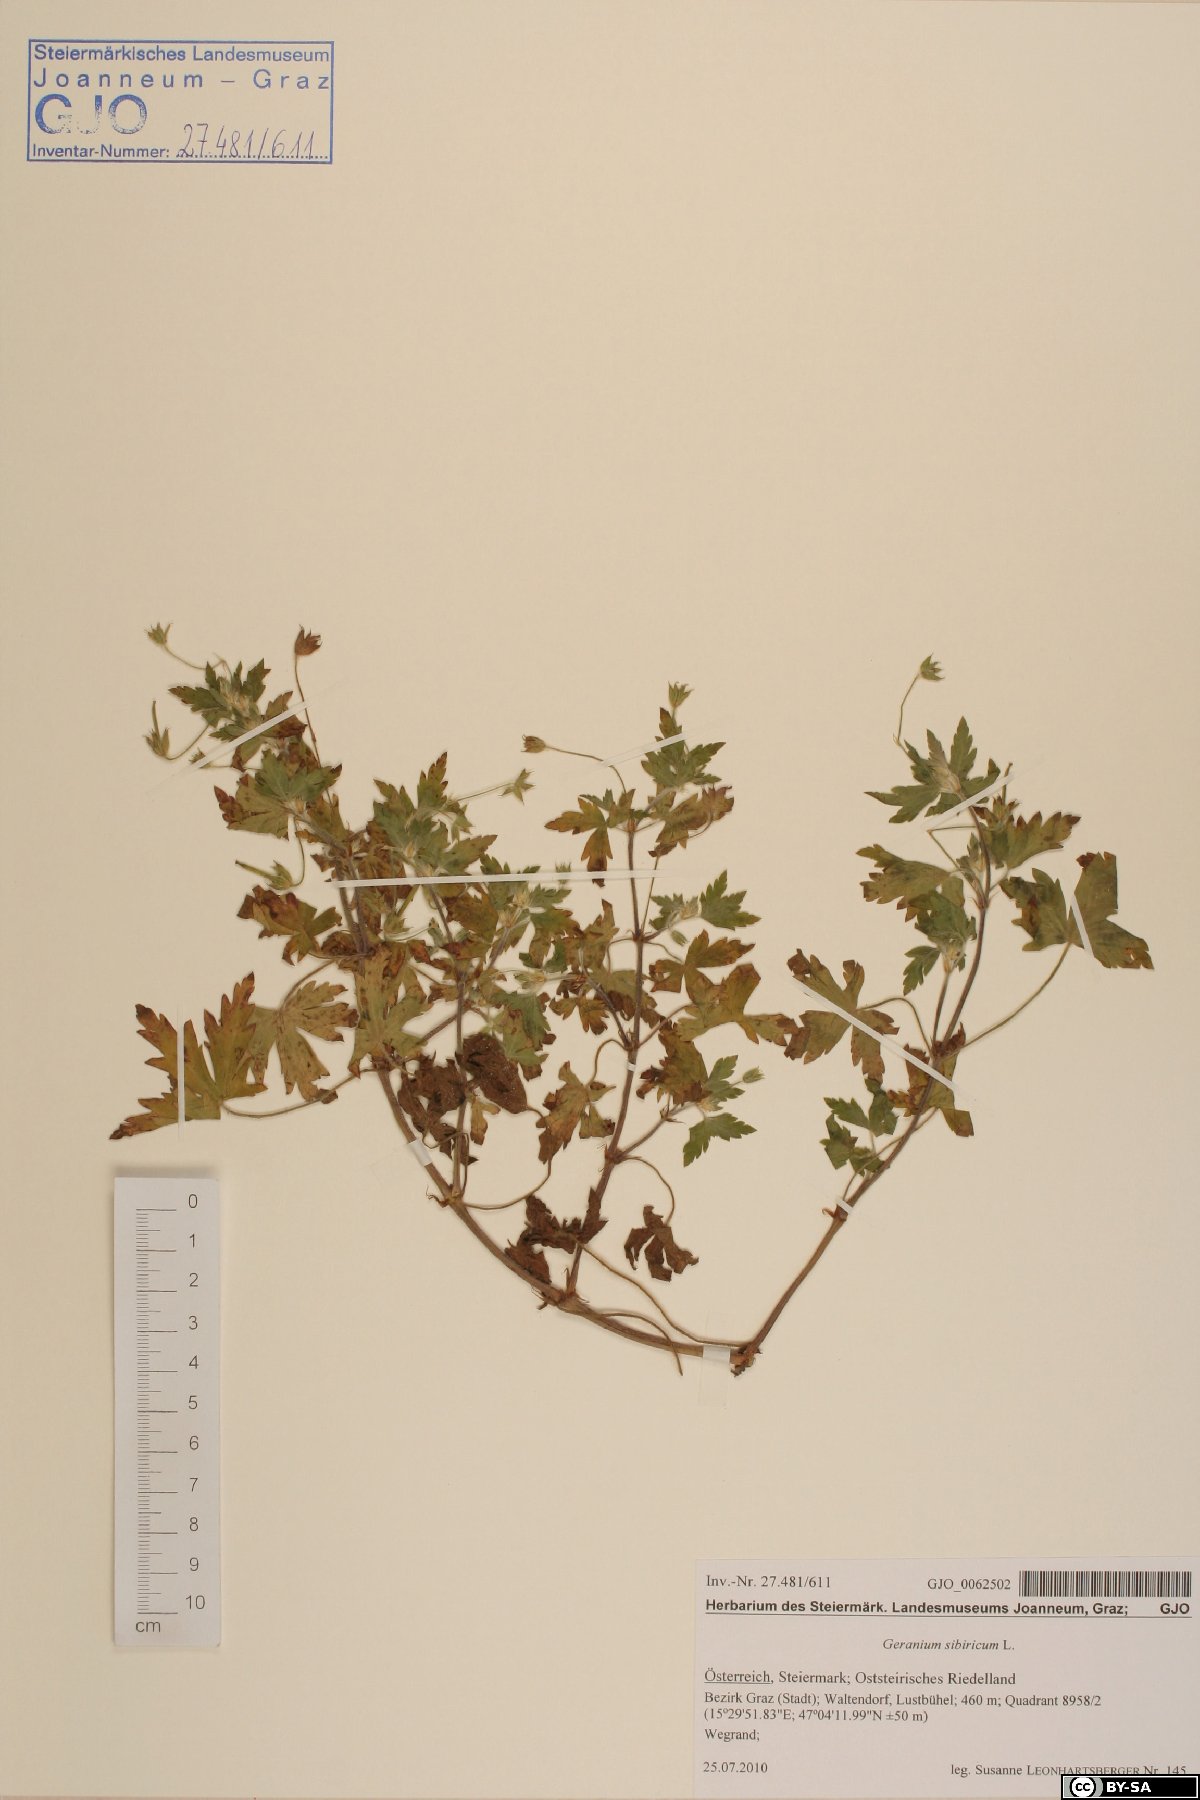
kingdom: Plantae
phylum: Tracheophyta
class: Magnoliopsida
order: Geraniales
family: Geraniaceae
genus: Geranium
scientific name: Geranium sibiricum
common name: Siberian crane's-bill
